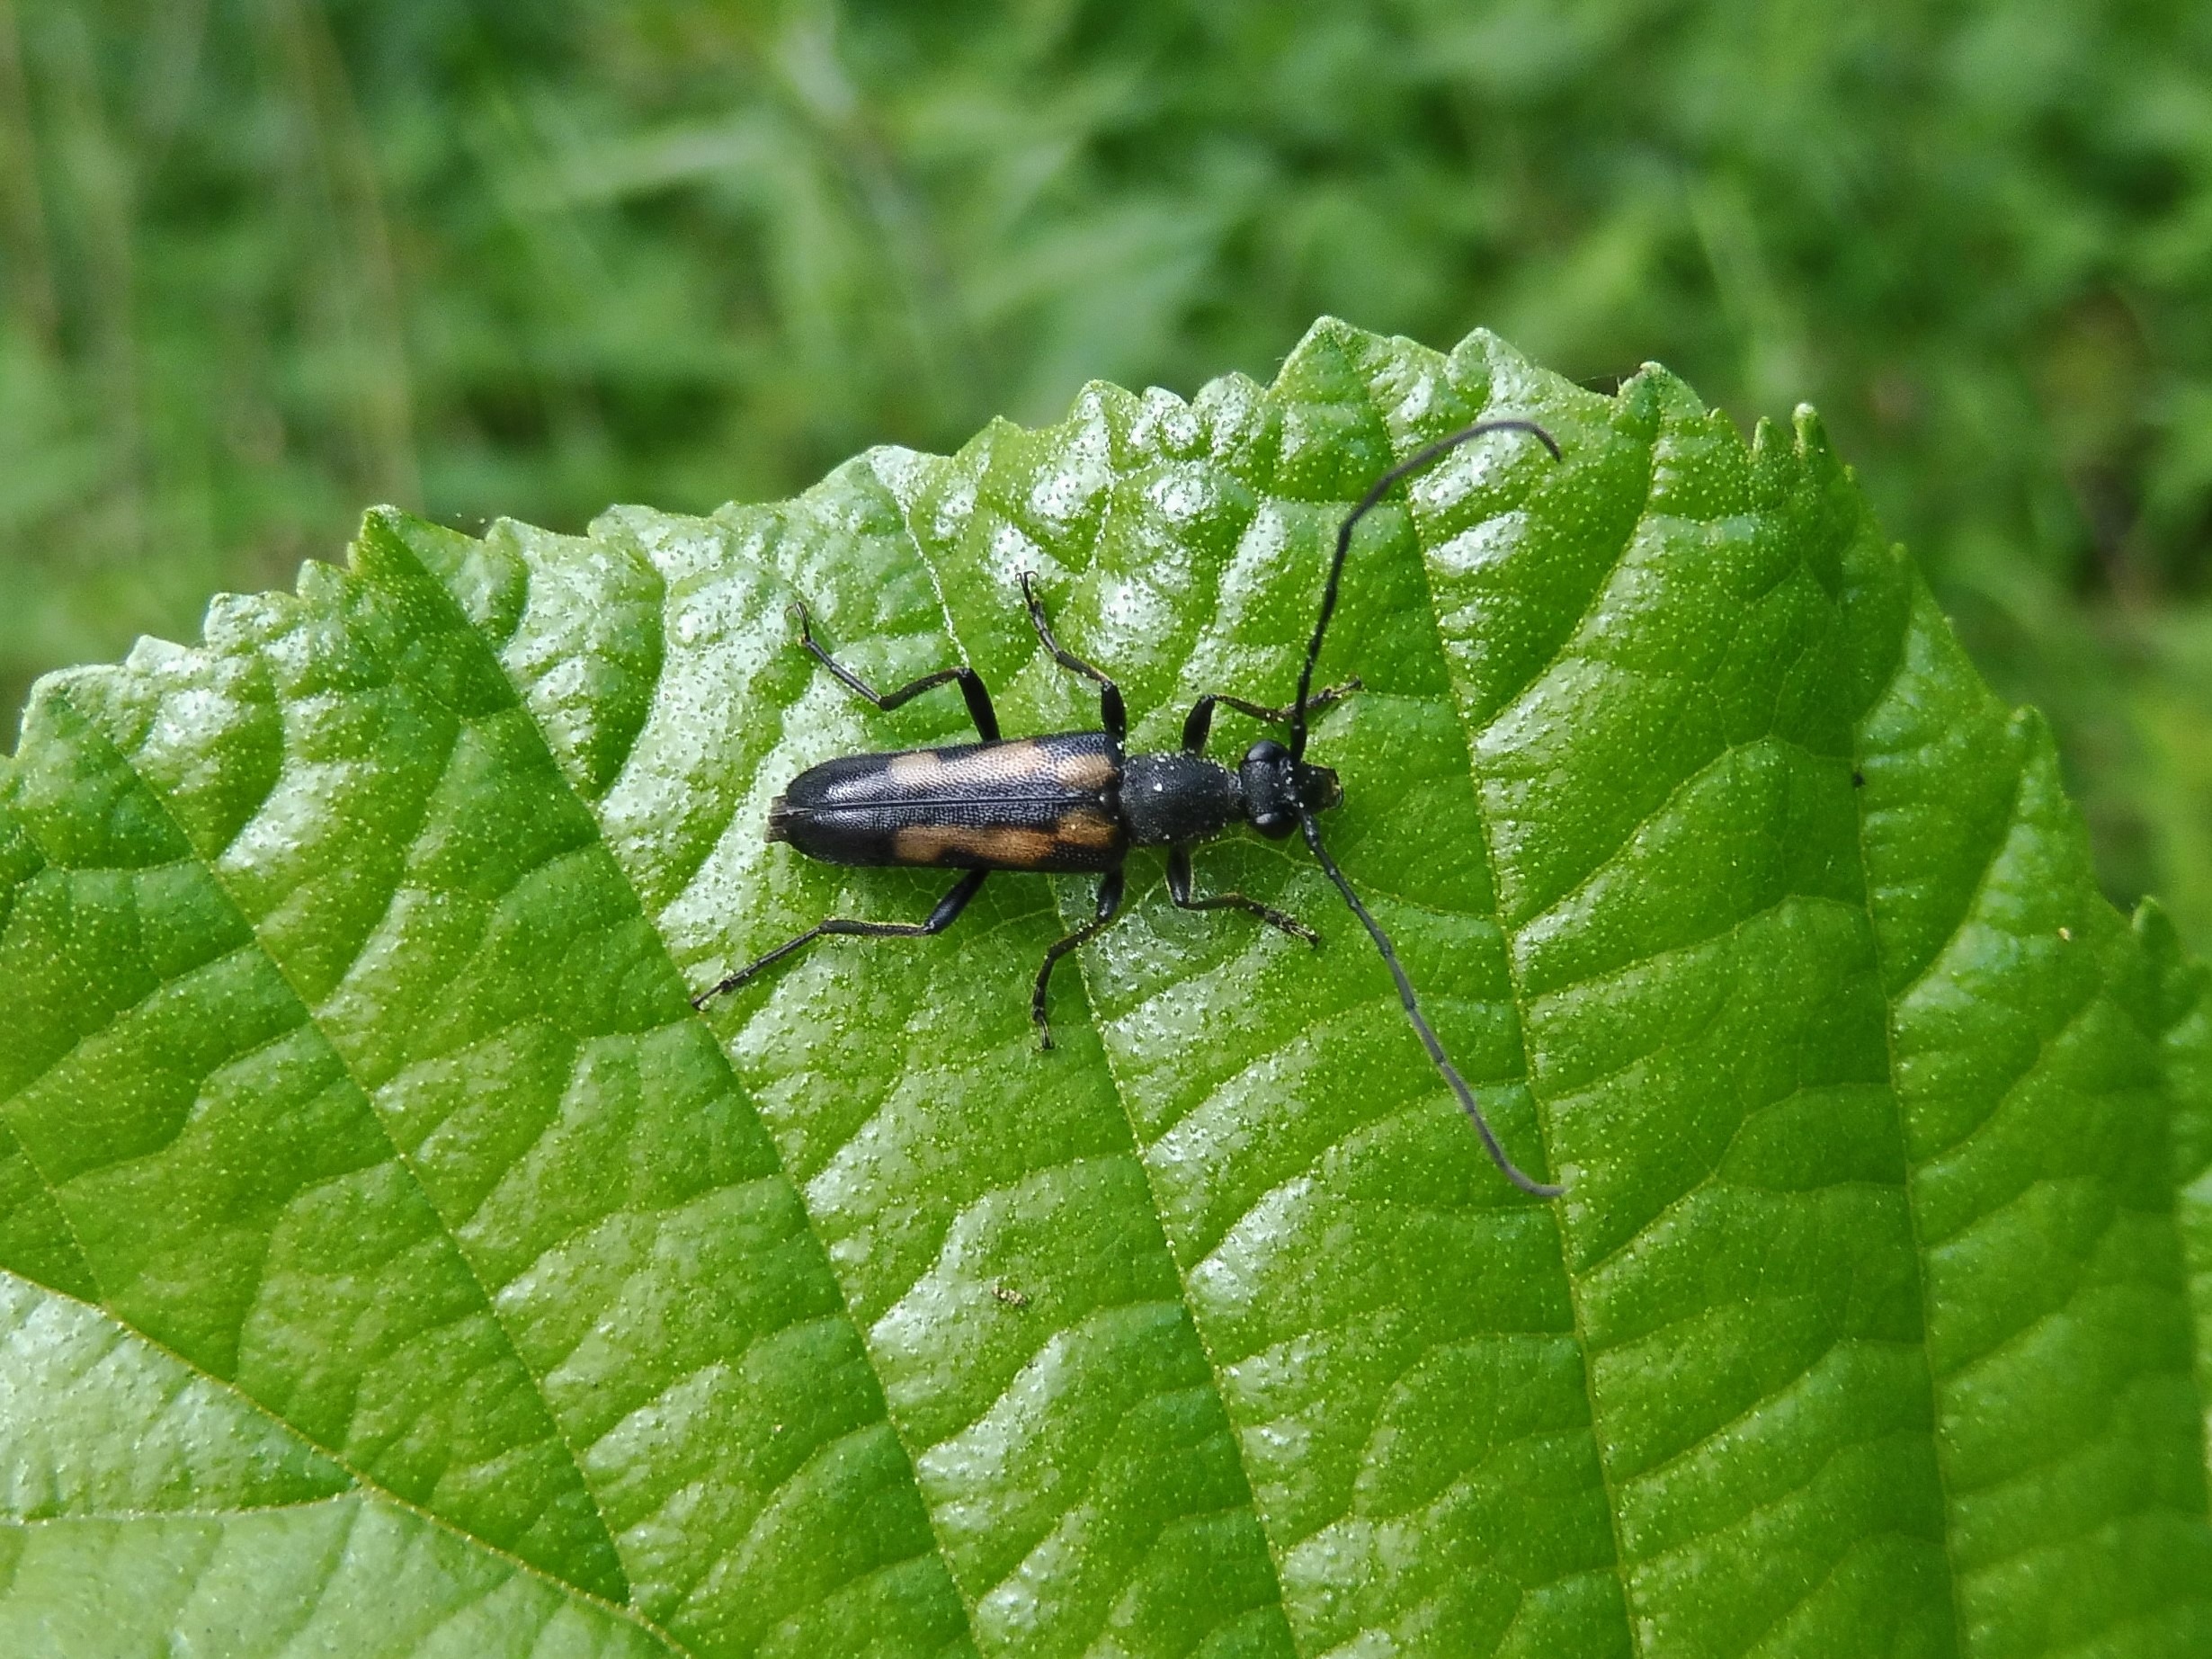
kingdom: Animalia
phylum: Arthropoda
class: Insecta
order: Coleoptera
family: Cerambycidae
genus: Anoplodera
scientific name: Anoplodera sexguttata
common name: Seksplettet blomsterbuk
